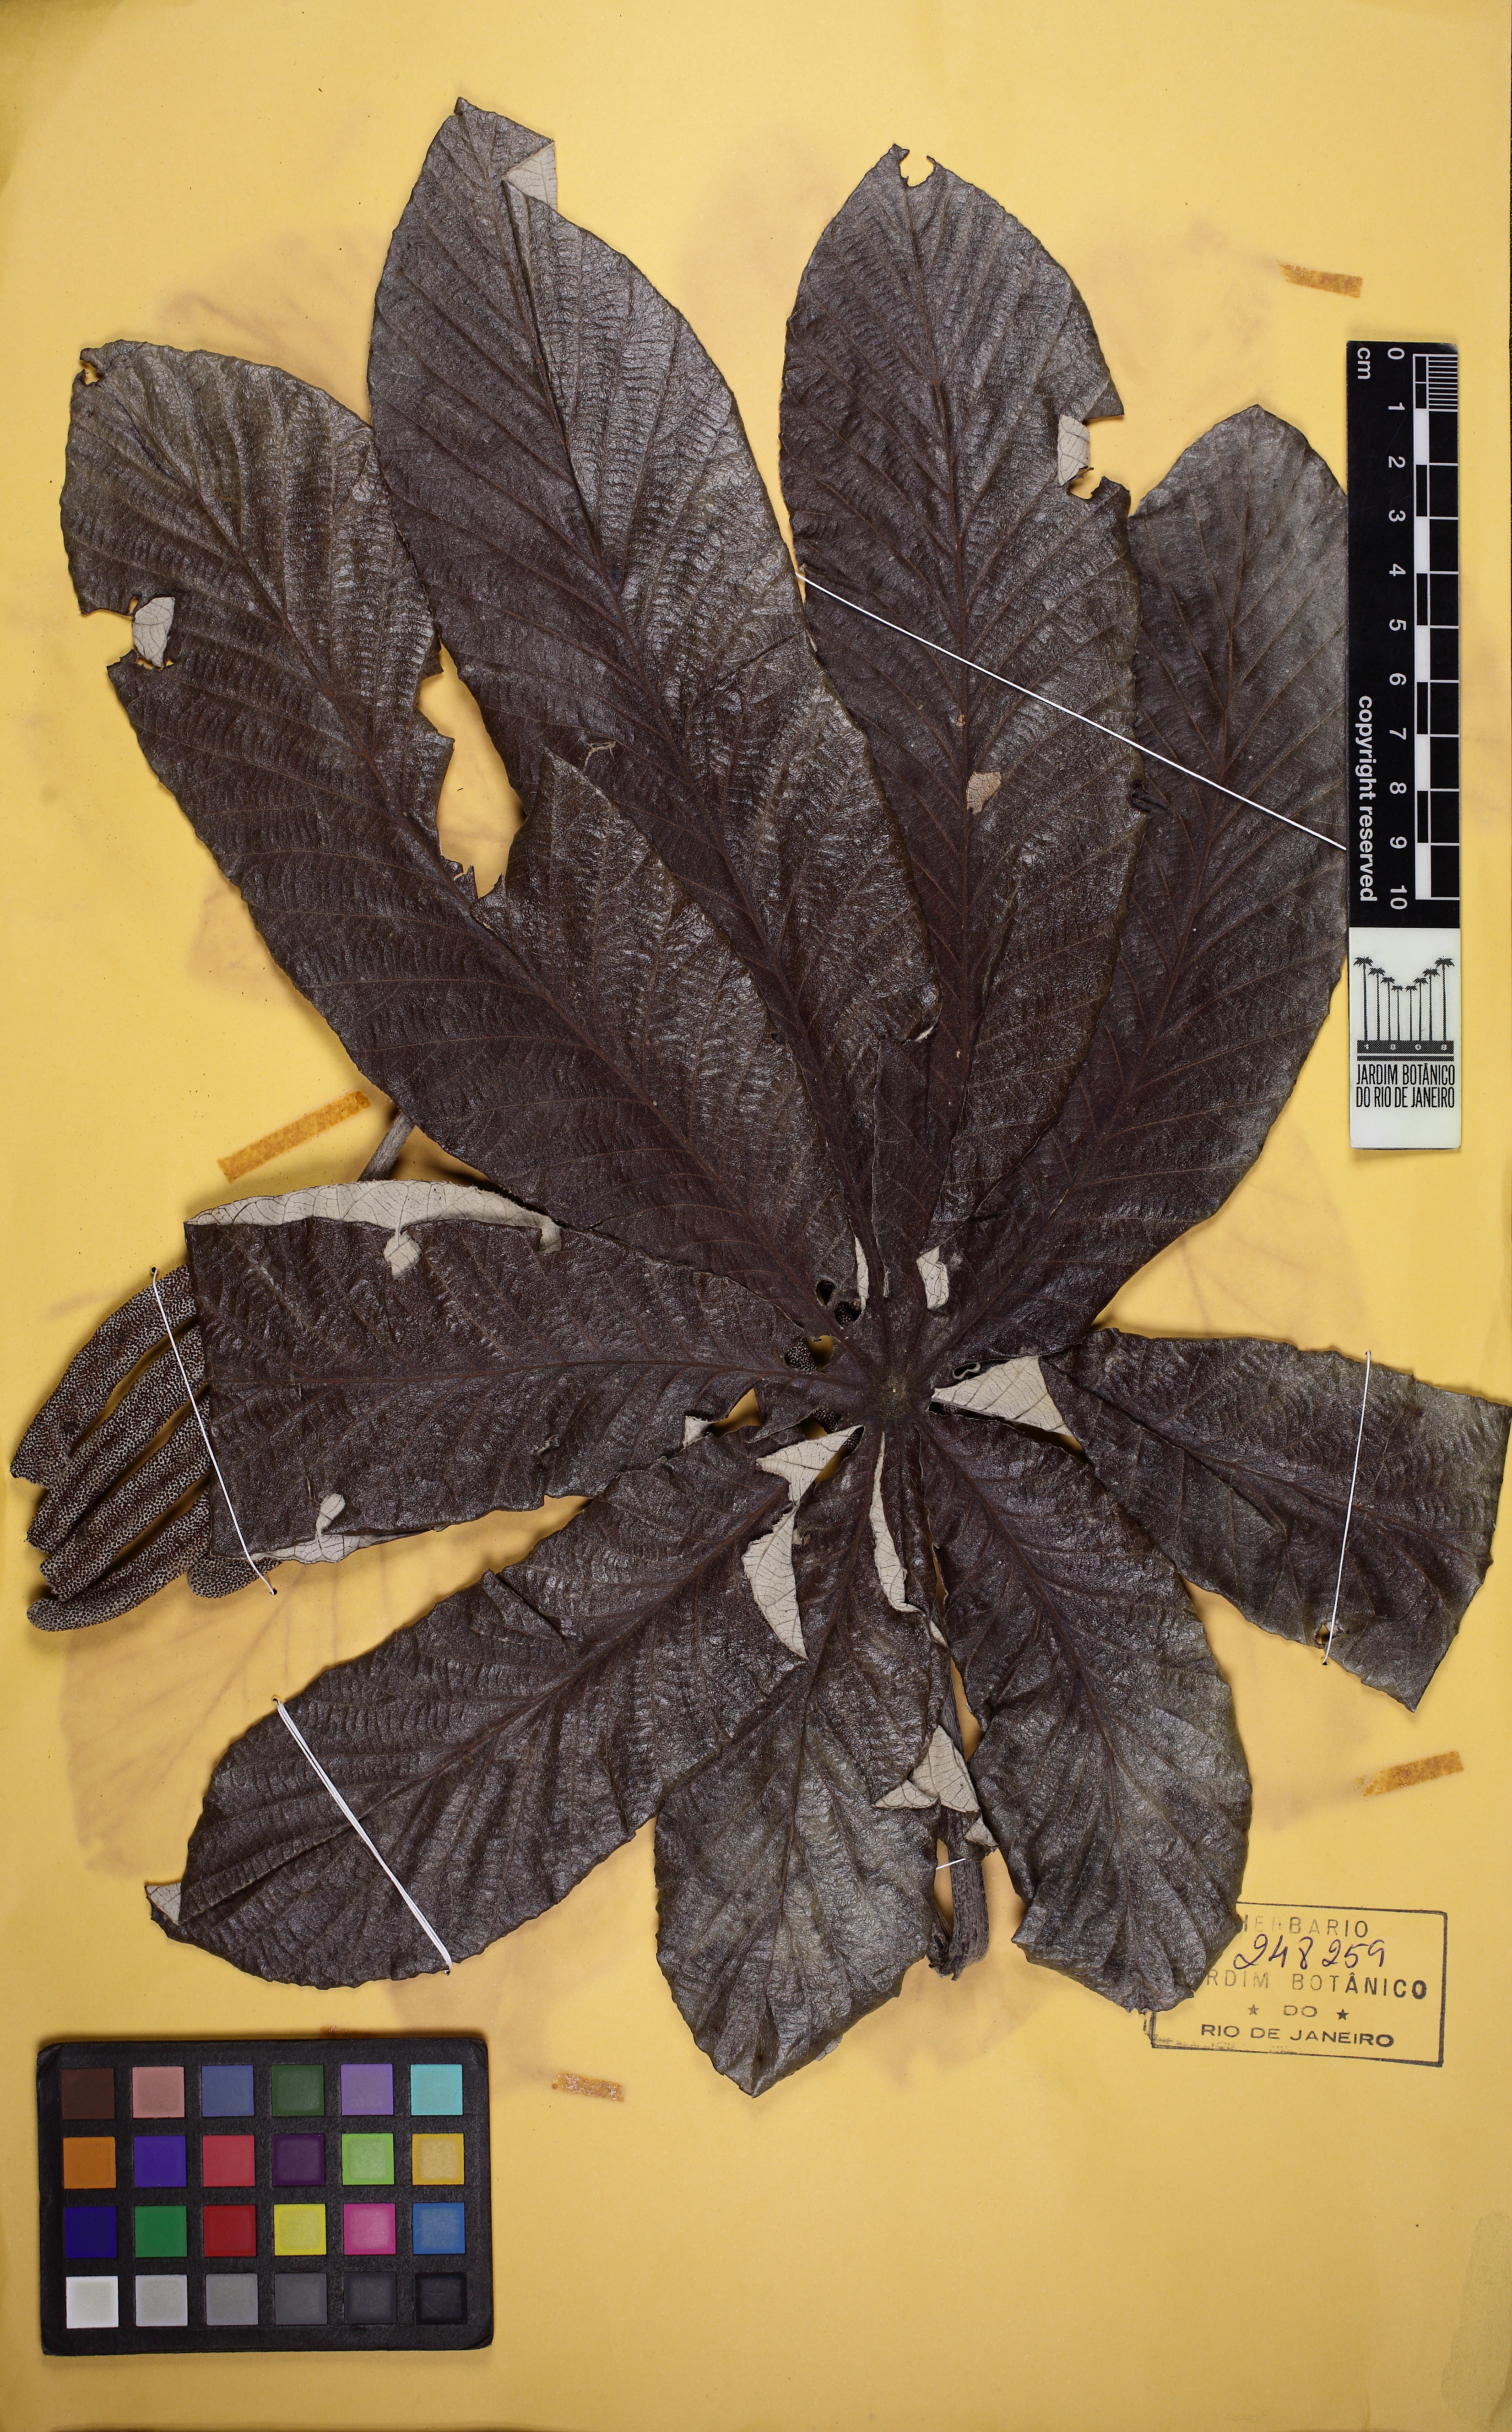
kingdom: Plantae
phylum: Tracheophyta
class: Magnoliopsida
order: Rosales
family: Urticaceae
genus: Cecropia
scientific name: Cecropia pachystachya
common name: Ambay pumpwood
